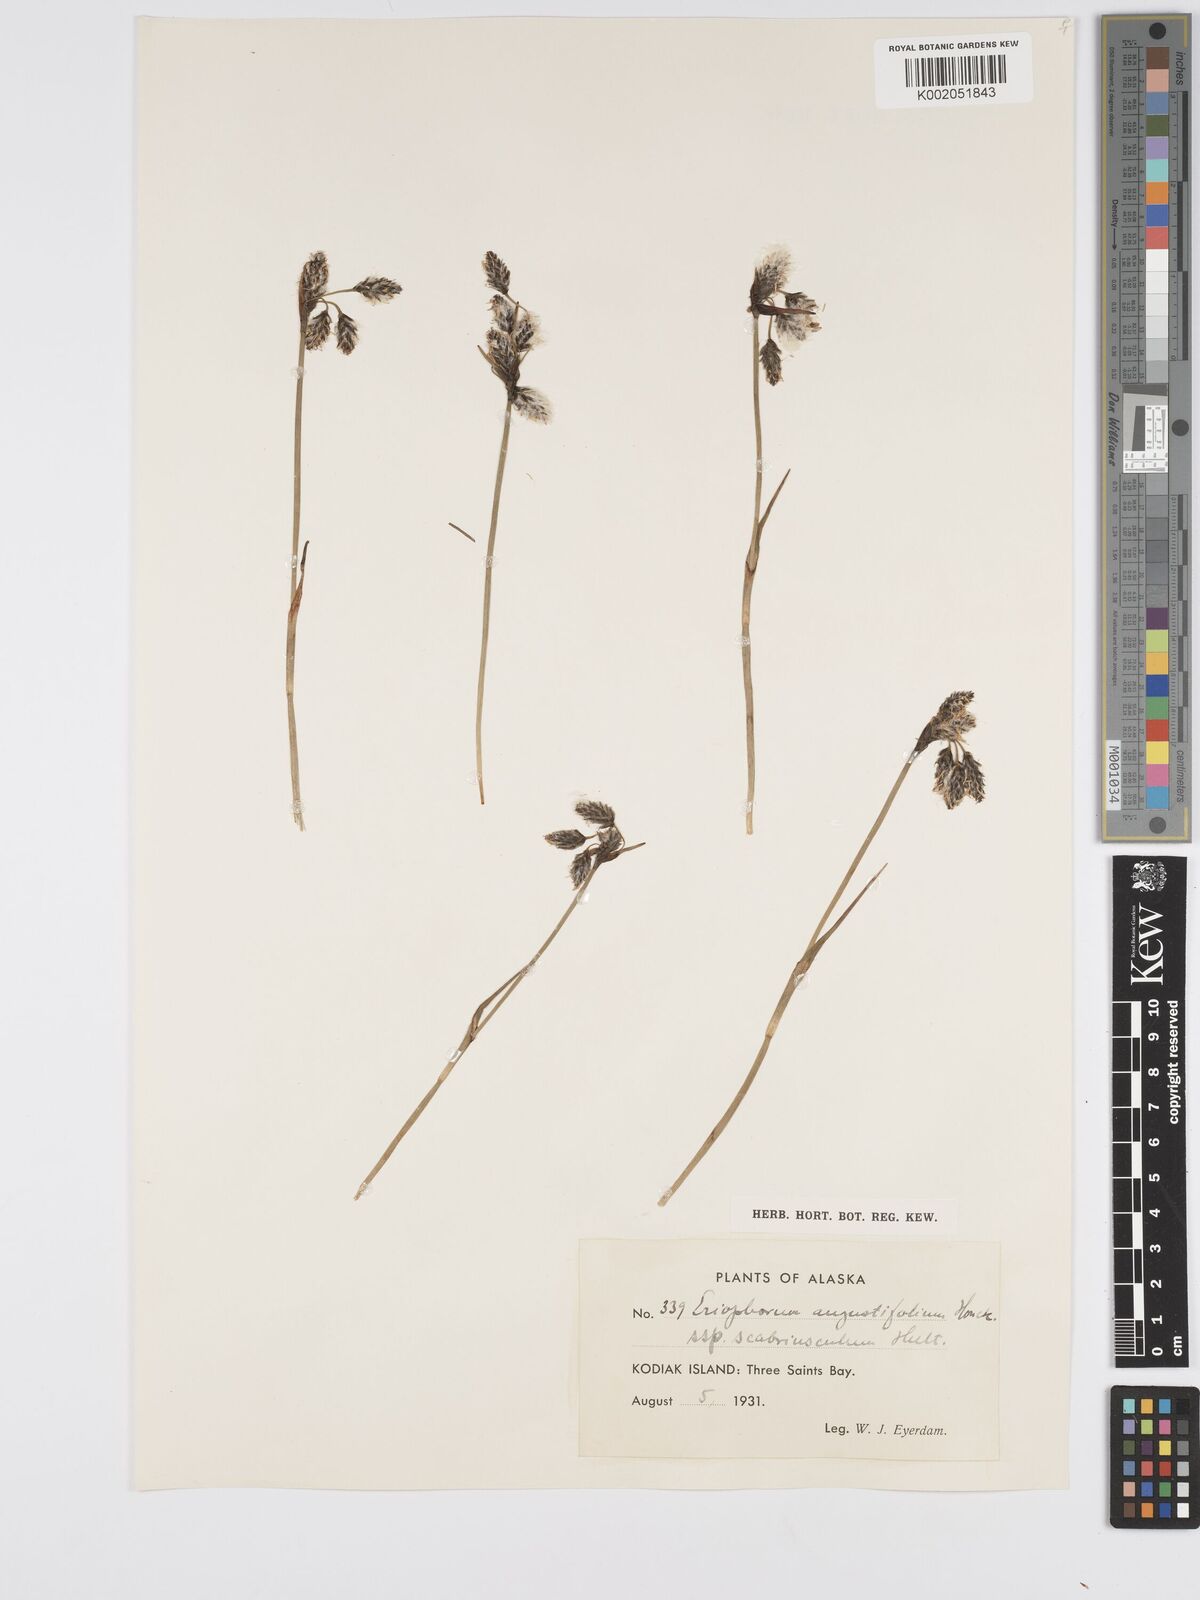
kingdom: Plantae
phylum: Tracheophyta
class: Liliopsida
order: Poales
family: Cyperaceae
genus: Eriophorum
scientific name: Eriophorum angustifolium
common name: Common cottongrass
